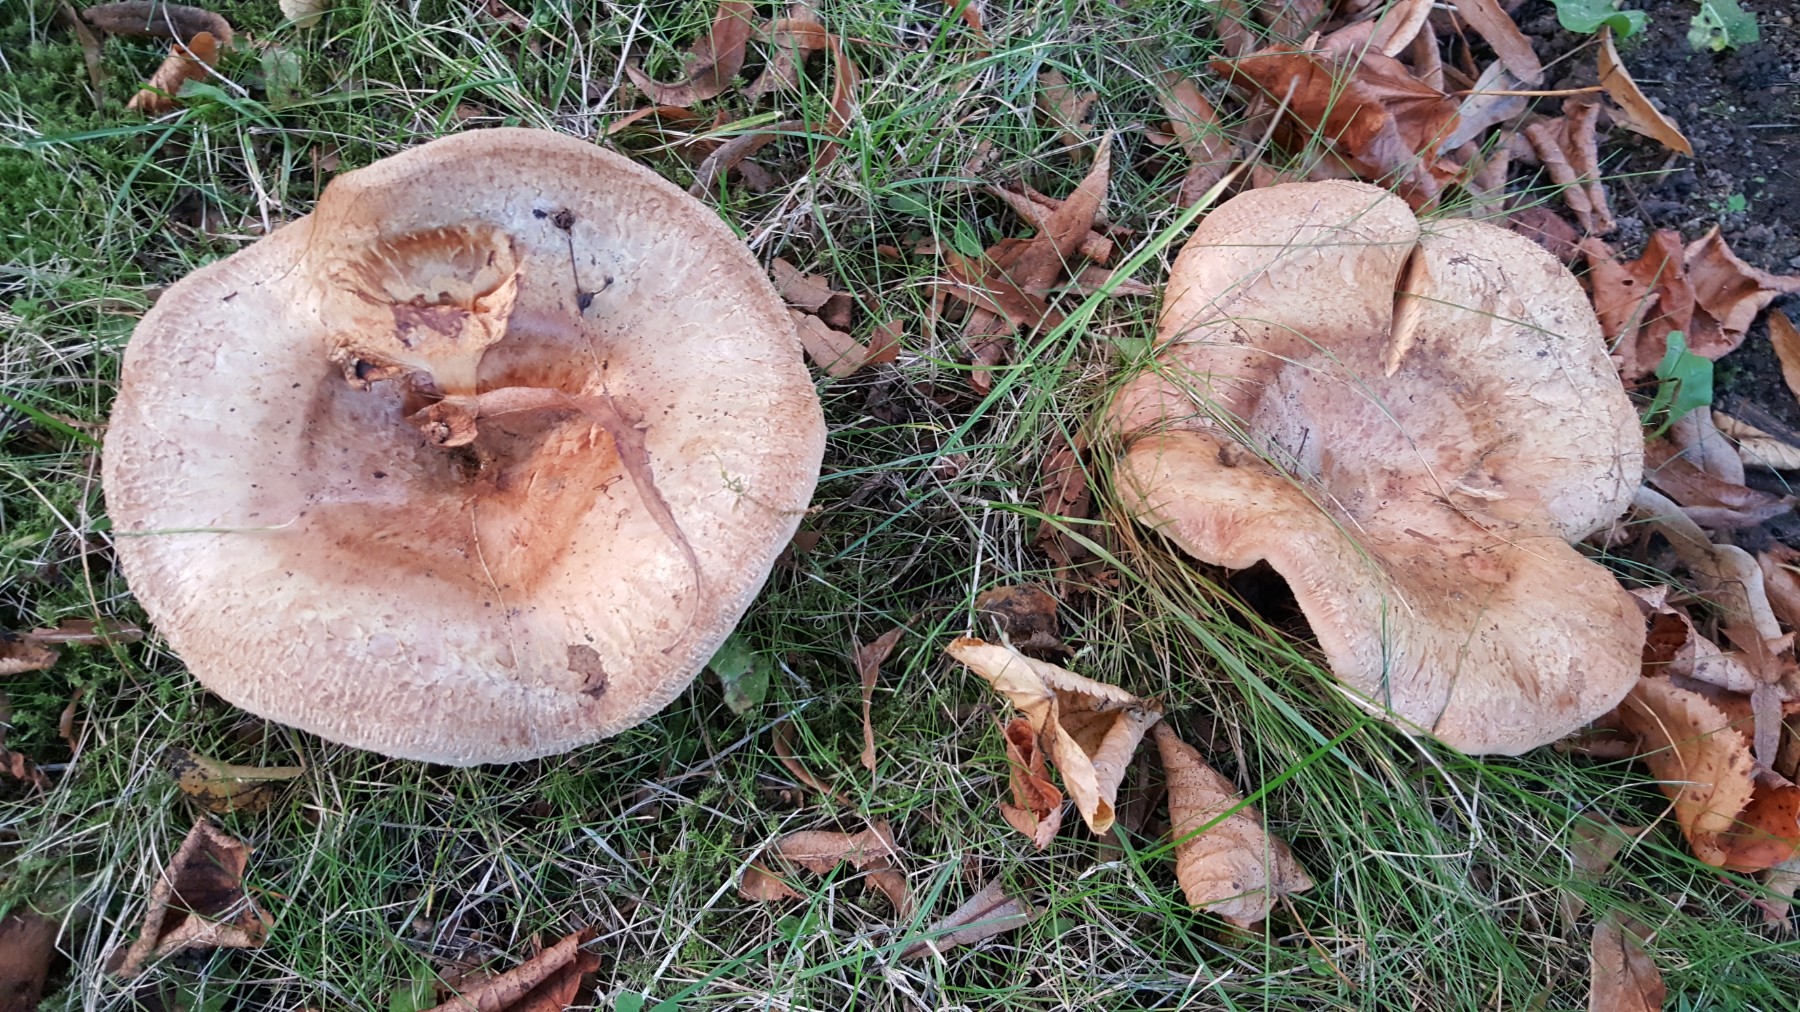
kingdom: Fungi
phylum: Basidiomycota
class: Agaricomycetes
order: Boletales
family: Paxillaceae
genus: Paxillus
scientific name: Paxillus
